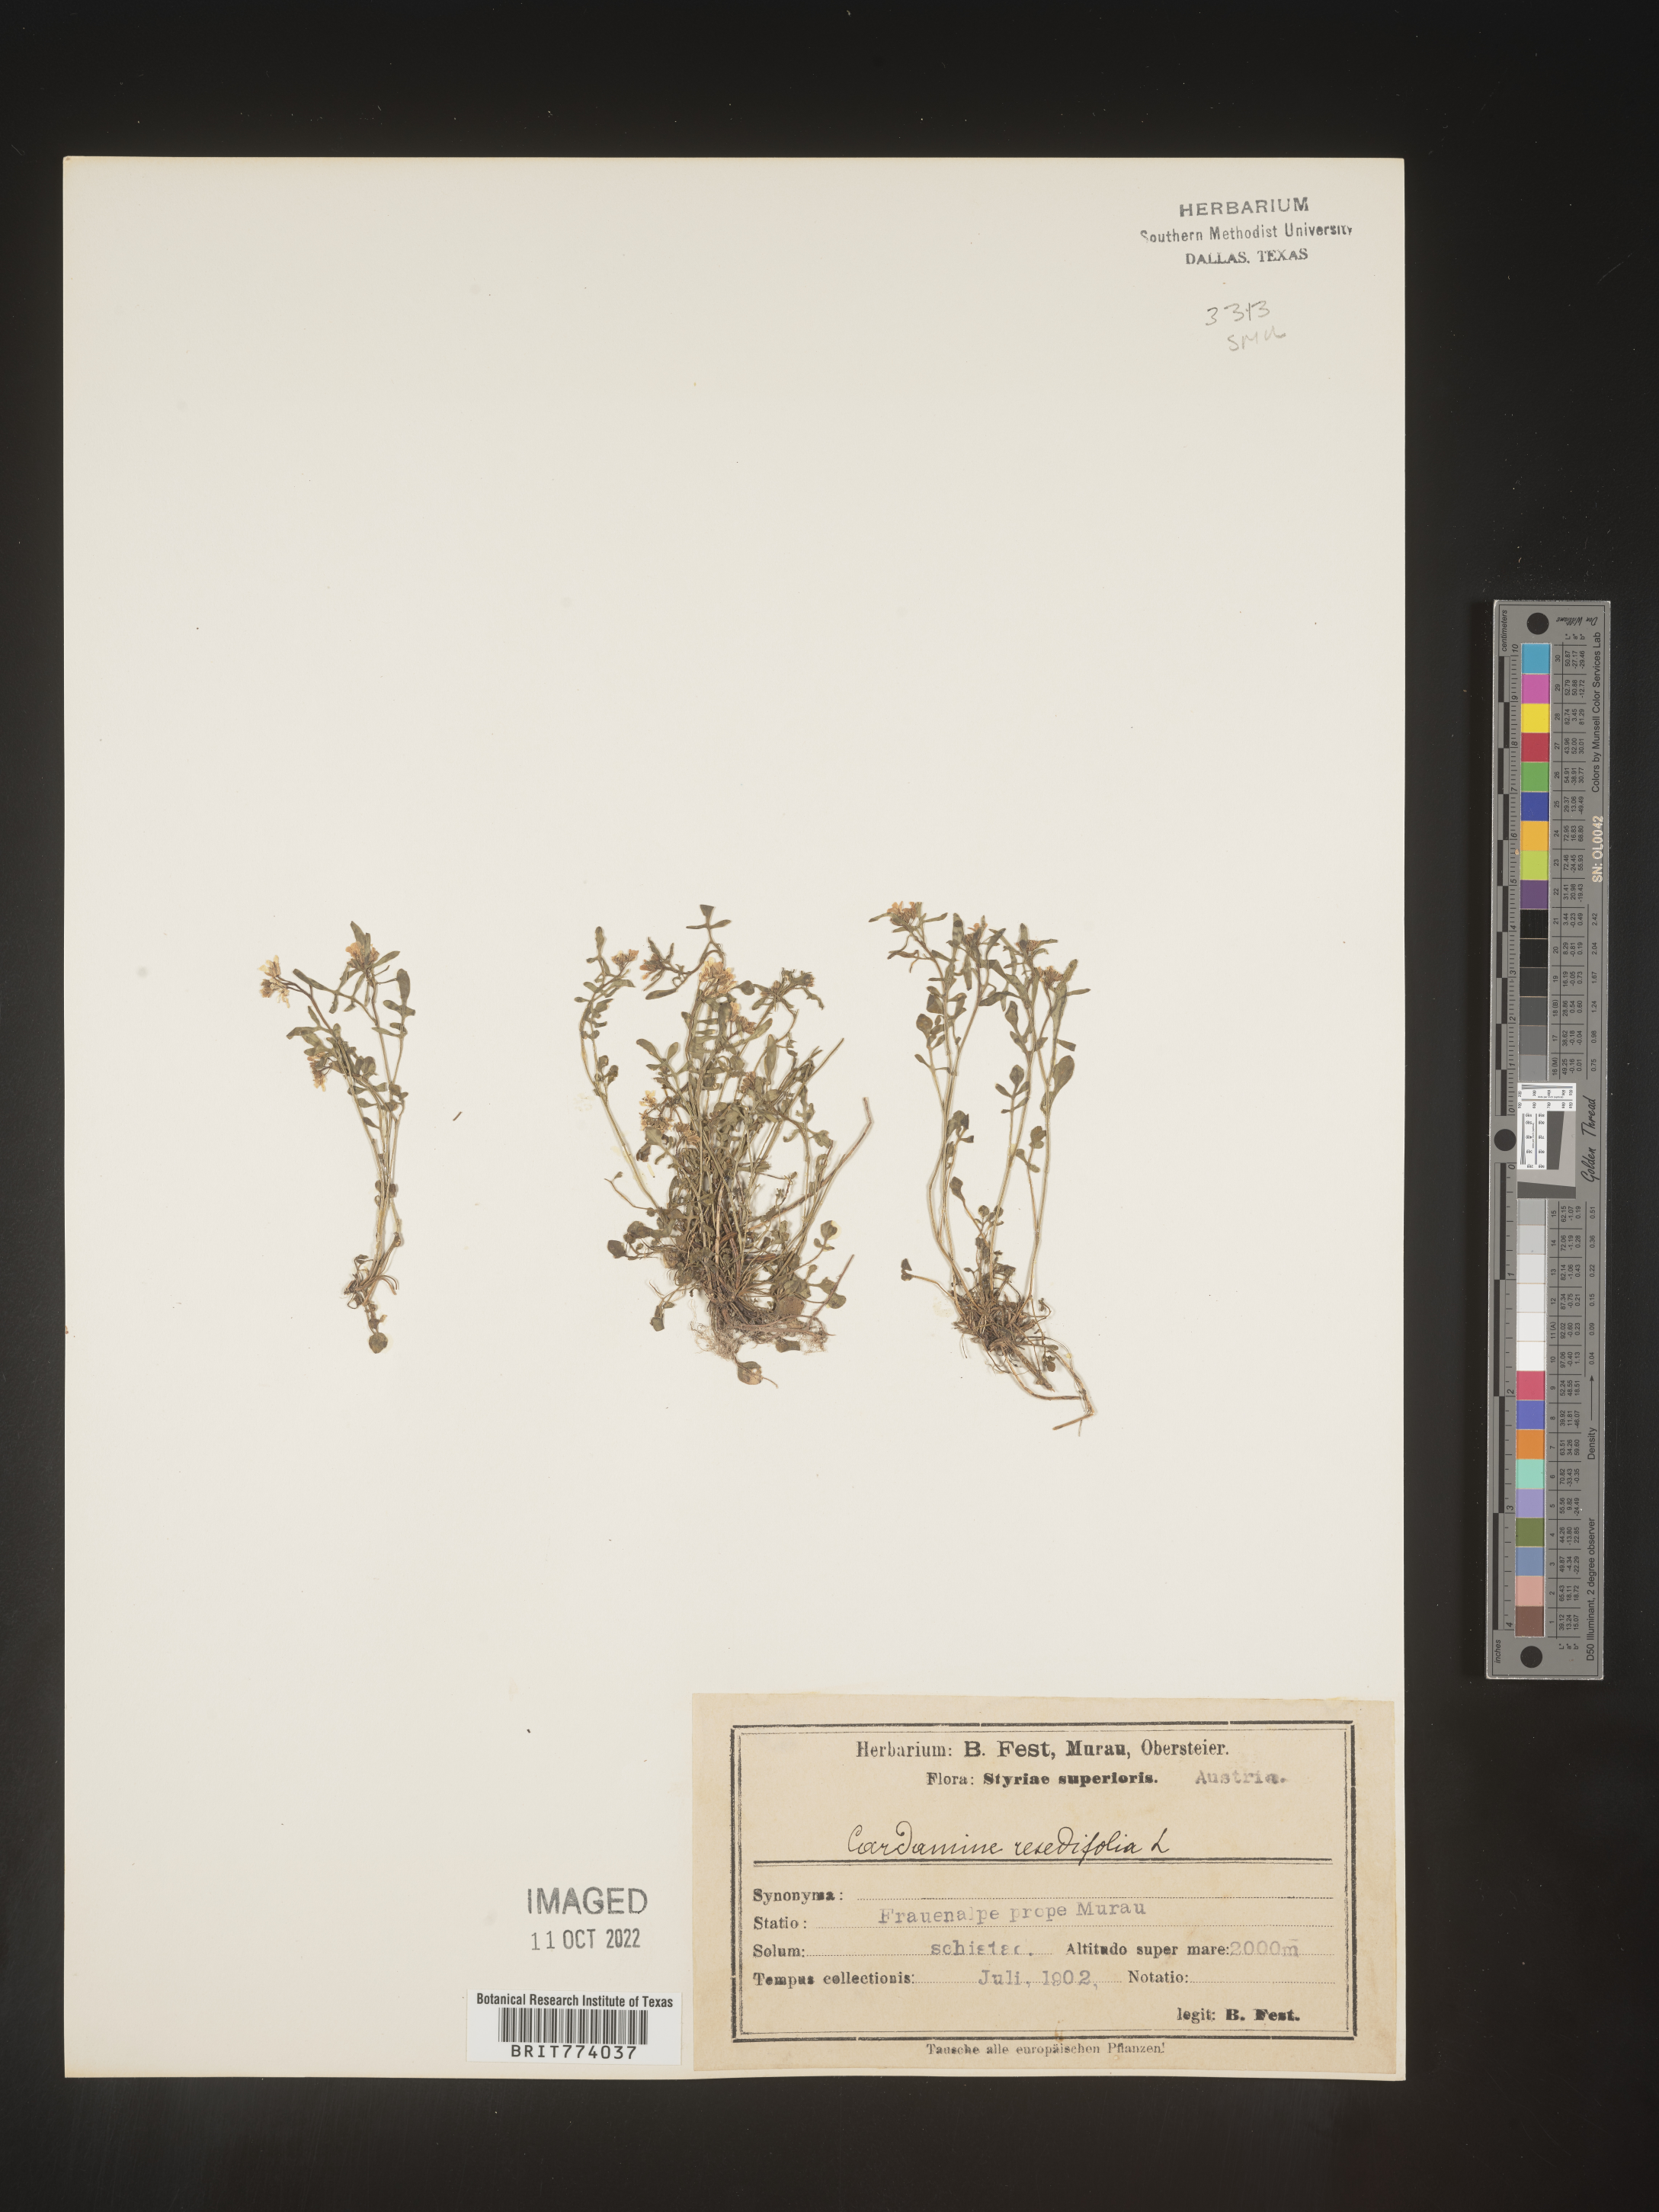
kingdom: Plantae
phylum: Tracheophyta
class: Magnoliopsida
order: Brassicales
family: Brassicaceae
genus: Cardamine
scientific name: Cardamine
